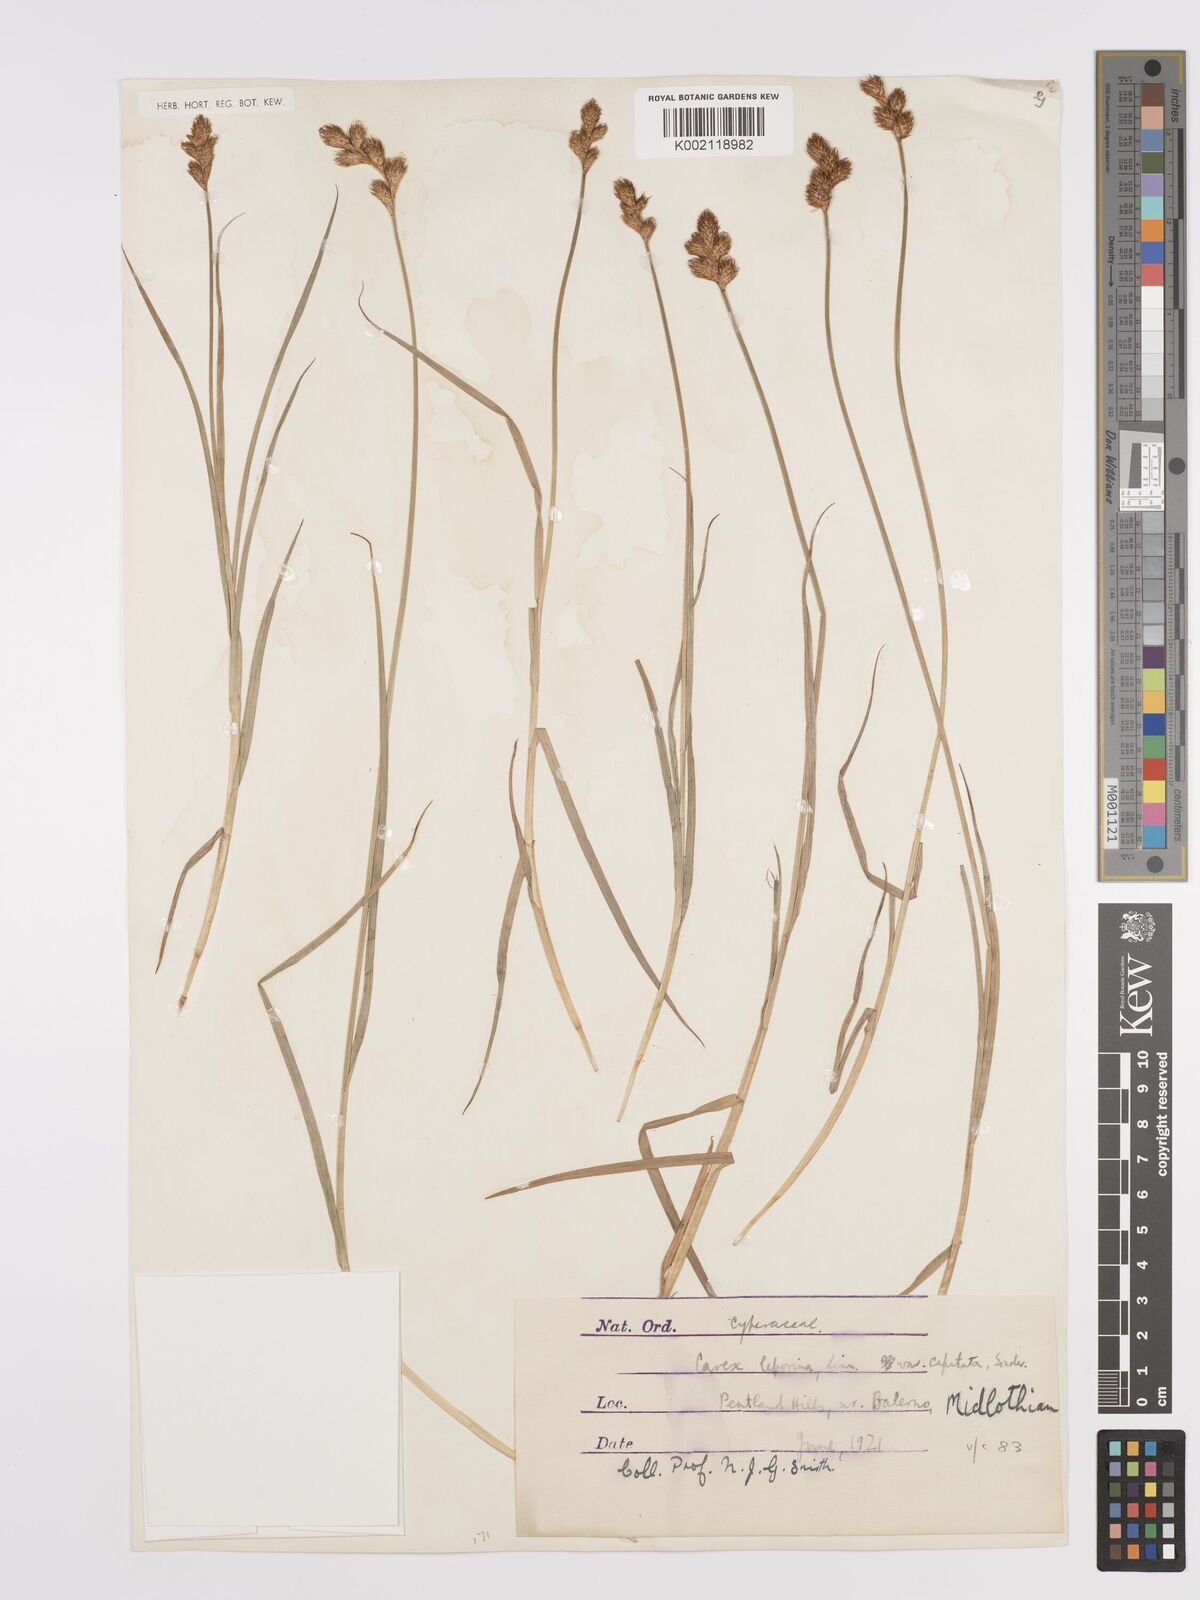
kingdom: Plantae
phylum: Tracheophyta
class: Liliopsida
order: Poales
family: Cyperaceae
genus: Carex
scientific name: Carex leporina
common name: Oval sedge
